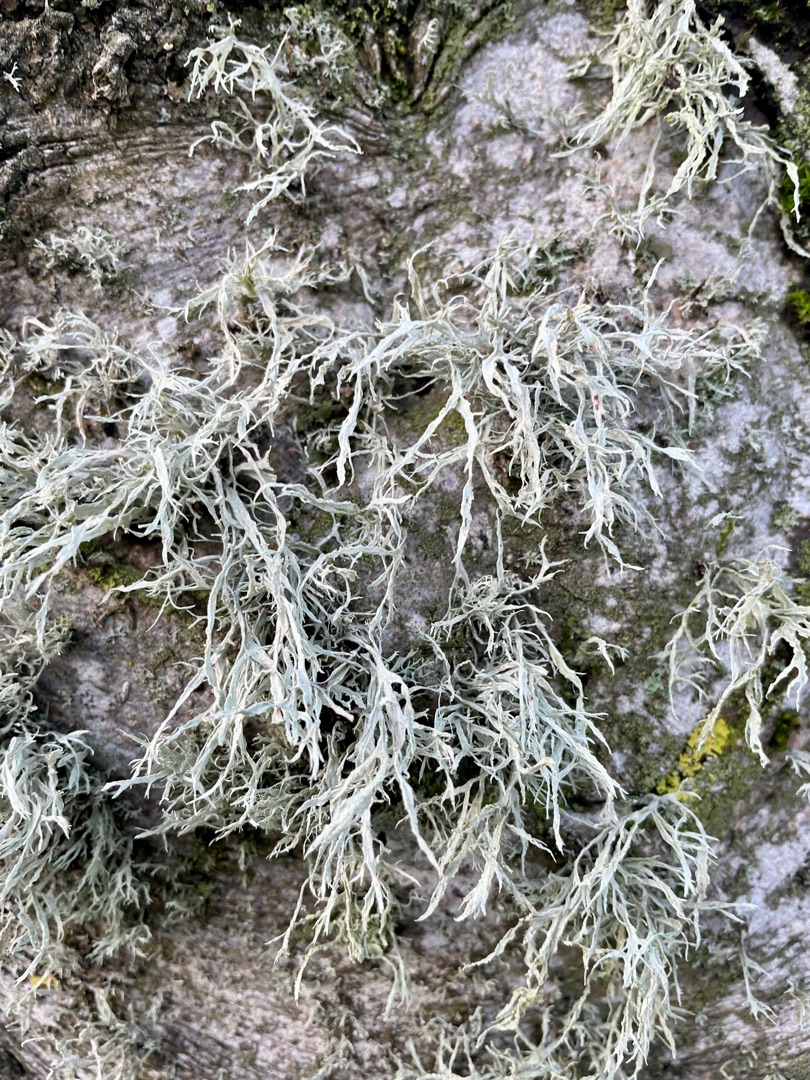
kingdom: Fungi
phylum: Ascomycota
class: Lecanoromycetes
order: Lecanorales
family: Ramalinaceae
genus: Ramalina
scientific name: Ramalina farinacea
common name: Melet grenlav
